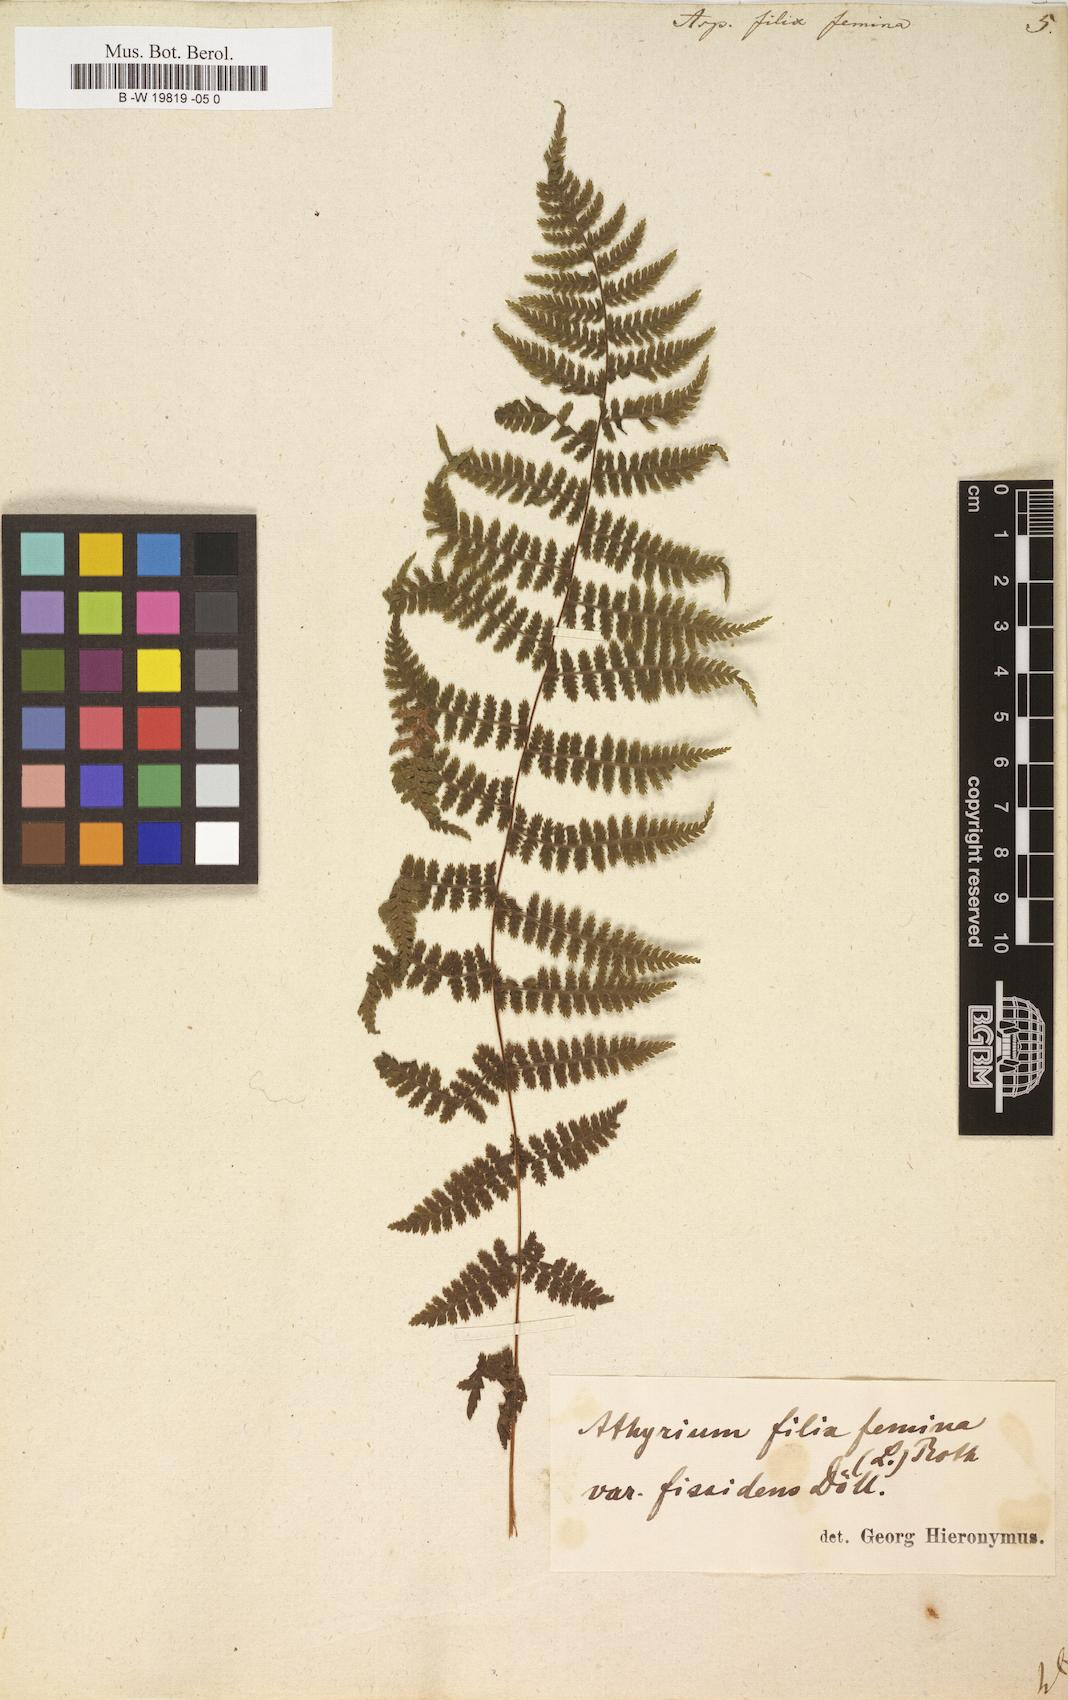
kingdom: Plantae
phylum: Tracheophyta
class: Polypodiopsida
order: Polypodiales
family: Athyriaceae
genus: Athyrium
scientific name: Athyrium filix-femina
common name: Lady fern
